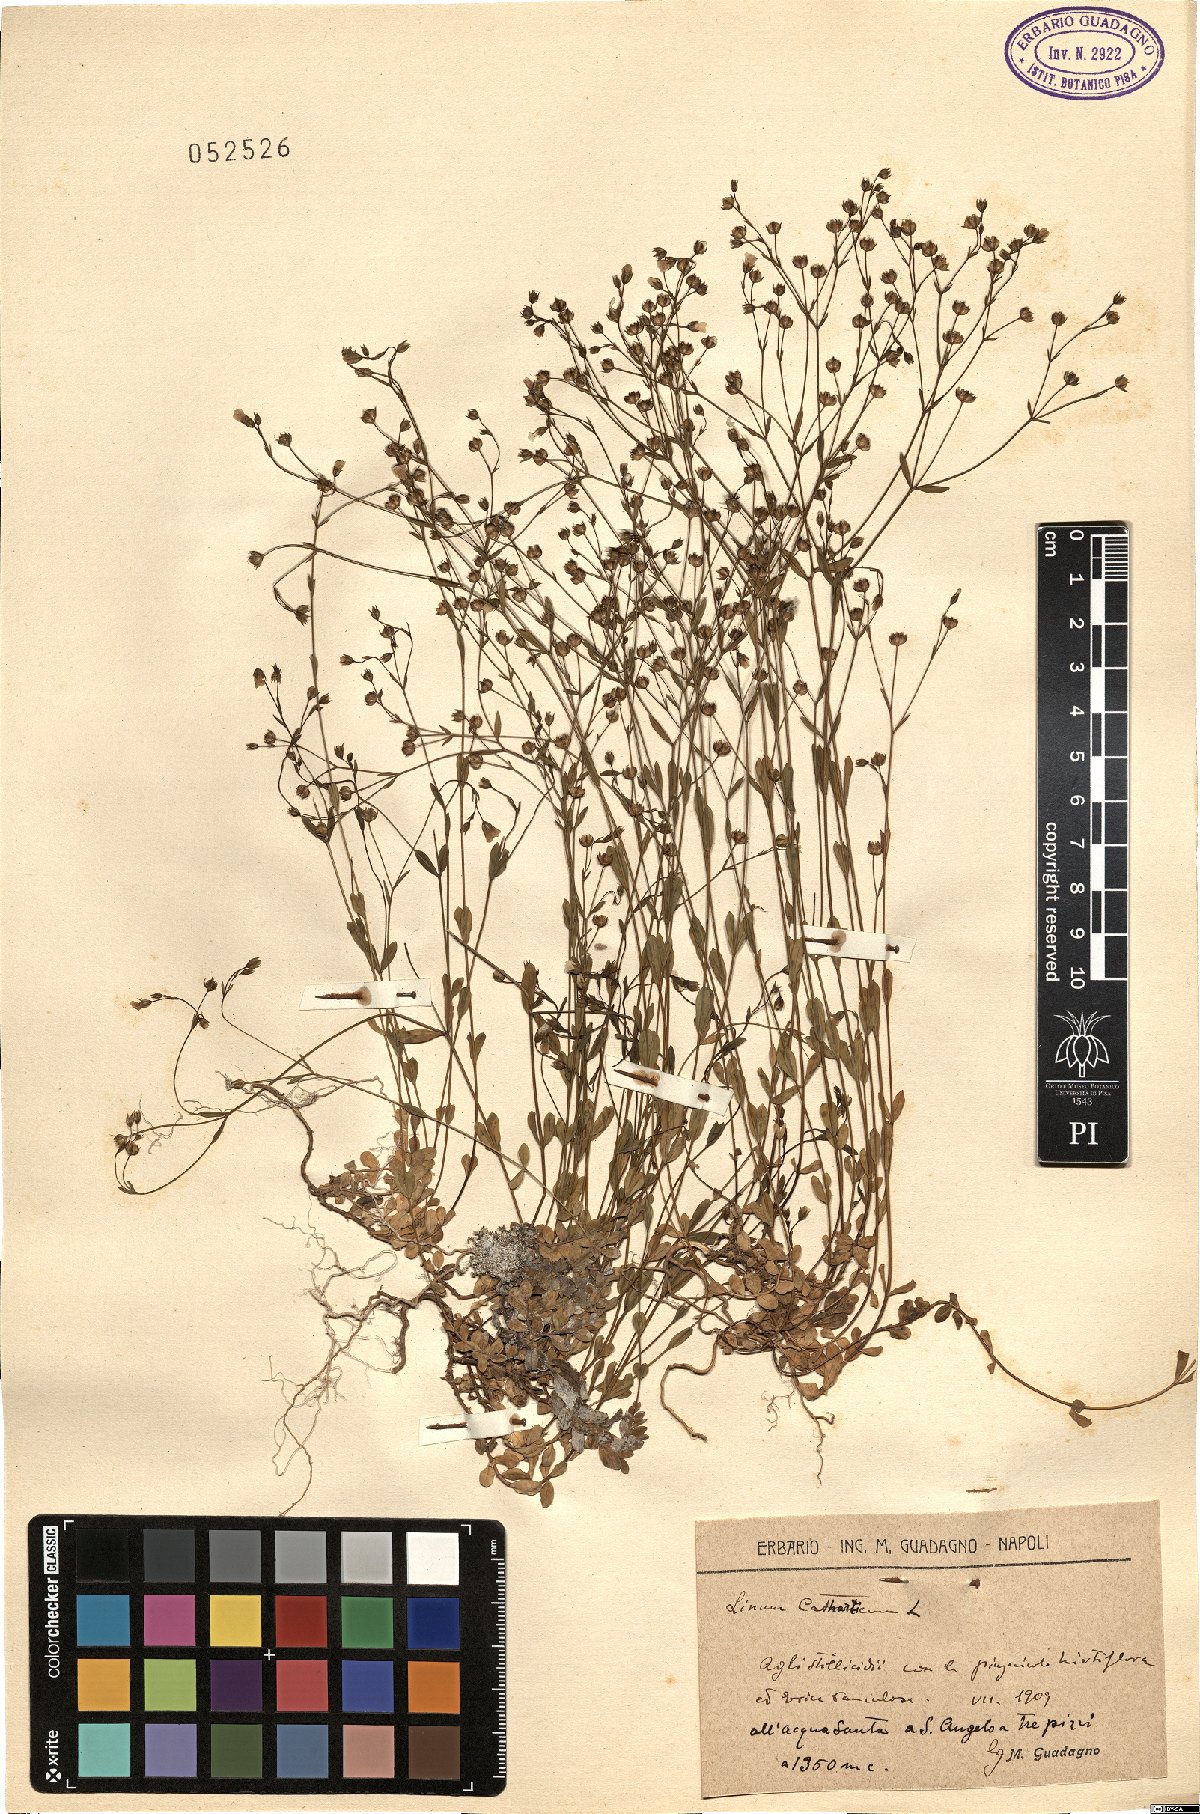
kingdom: Plantae
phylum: Tracheophyta
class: Magnoliopsida
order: Malpighiales
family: Linaceae
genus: Linum
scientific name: Linum catharticum
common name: Fairy flax
